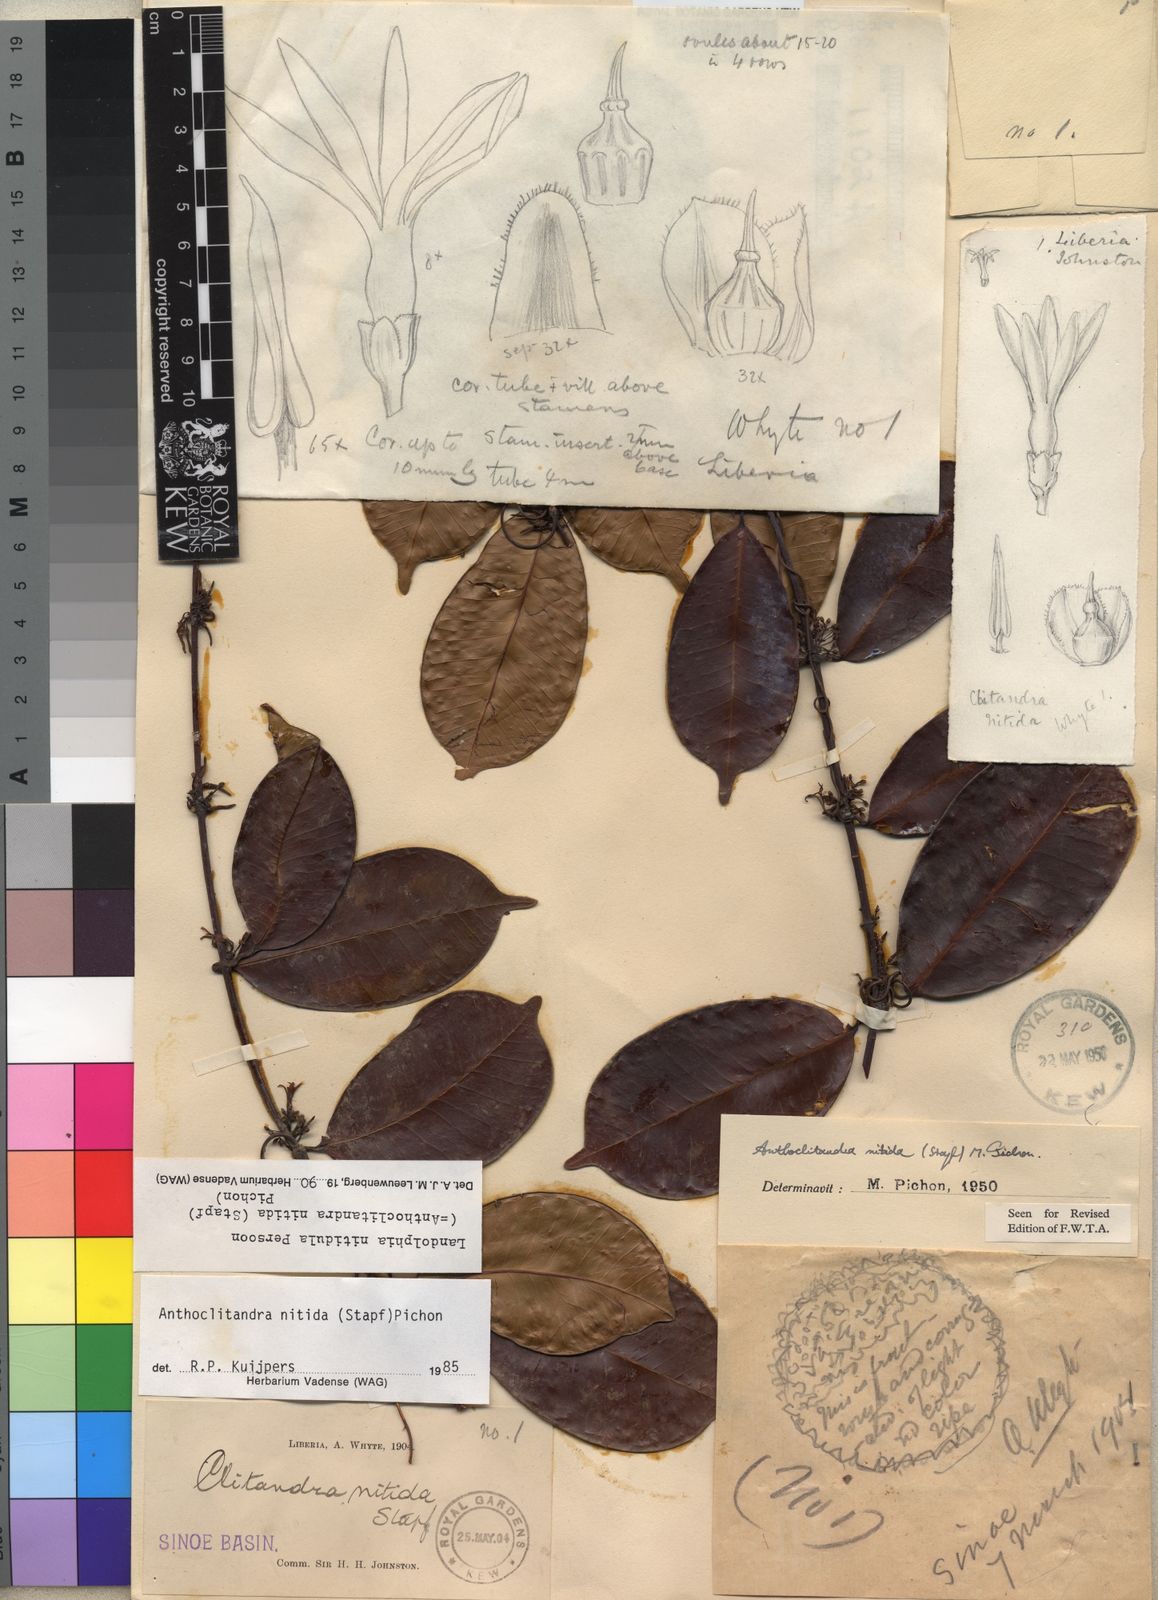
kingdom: Plantae
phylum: Tracheophyta
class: Magnoliopsida
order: Gentianales
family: Apocynaceae
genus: Landolphia
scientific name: Landolphia nitidula
